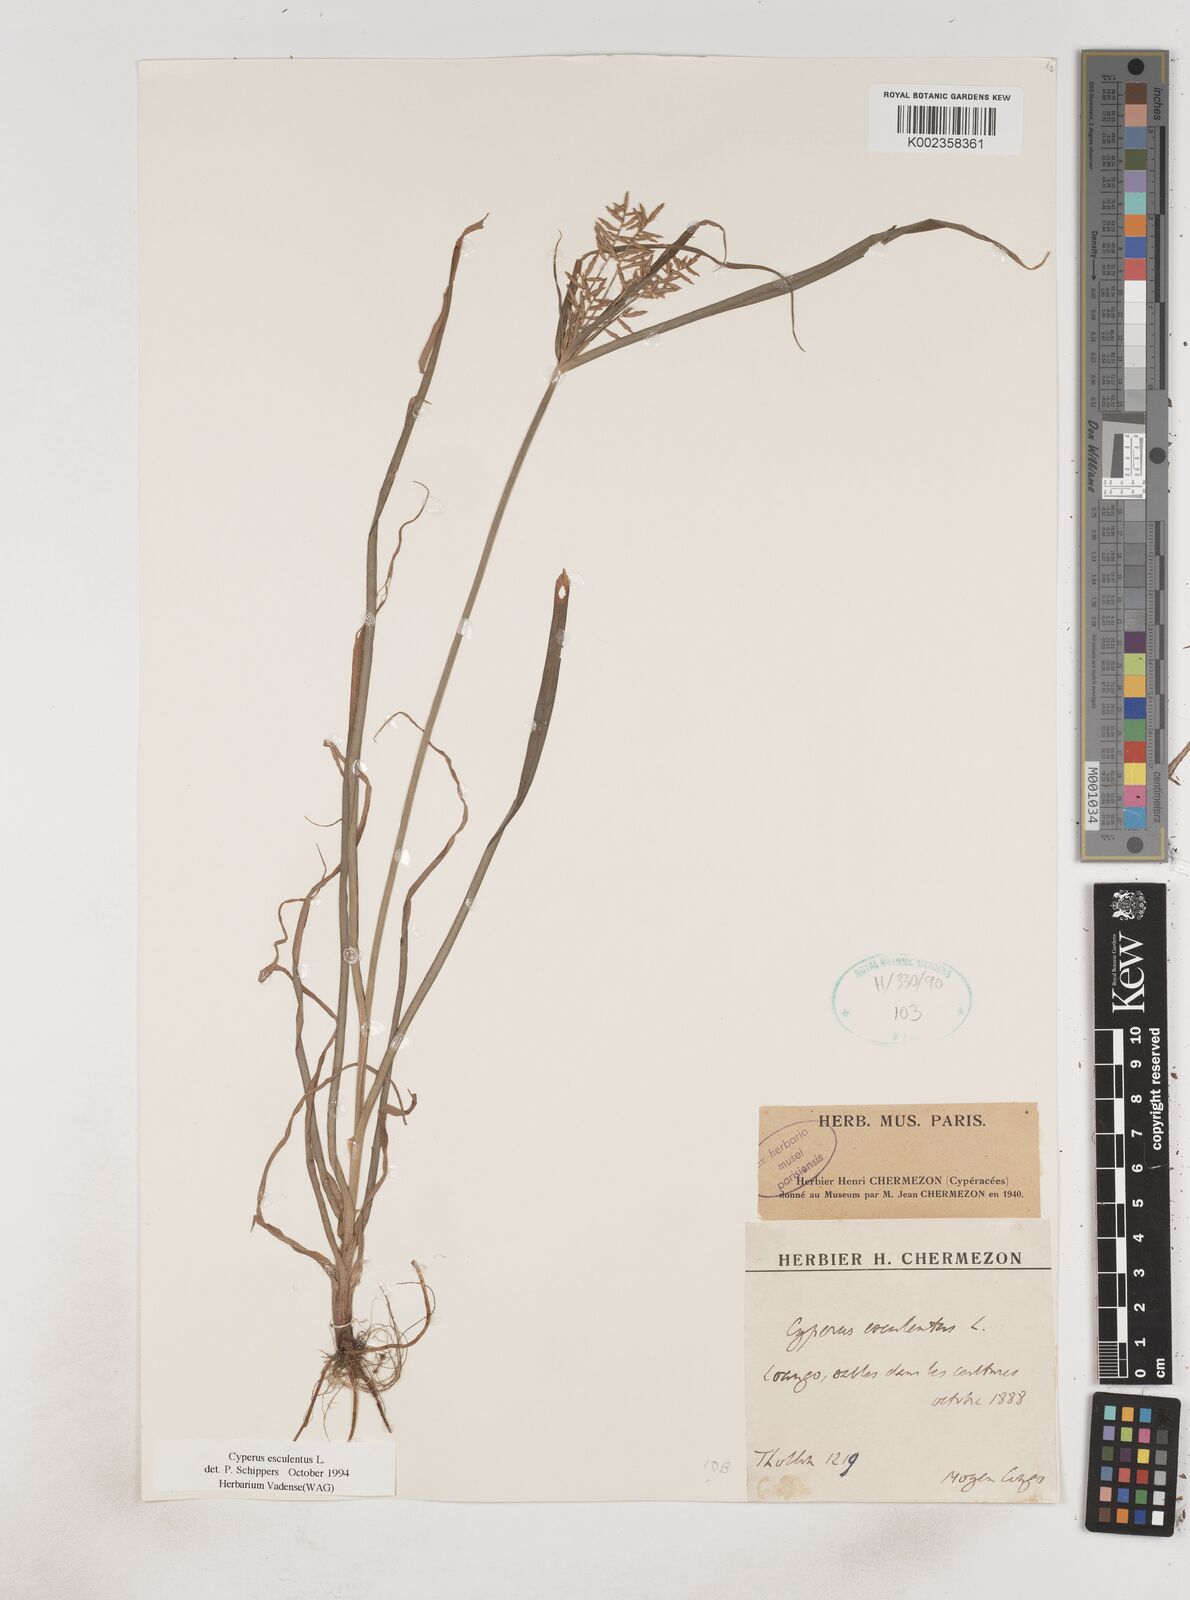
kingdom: Plantae
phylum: Tracheophyta
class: Liliopsida
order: Poales
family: Cyperaceae
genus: Cyperus
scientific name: Cyperus esculentus
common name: Yellow nutsedge
